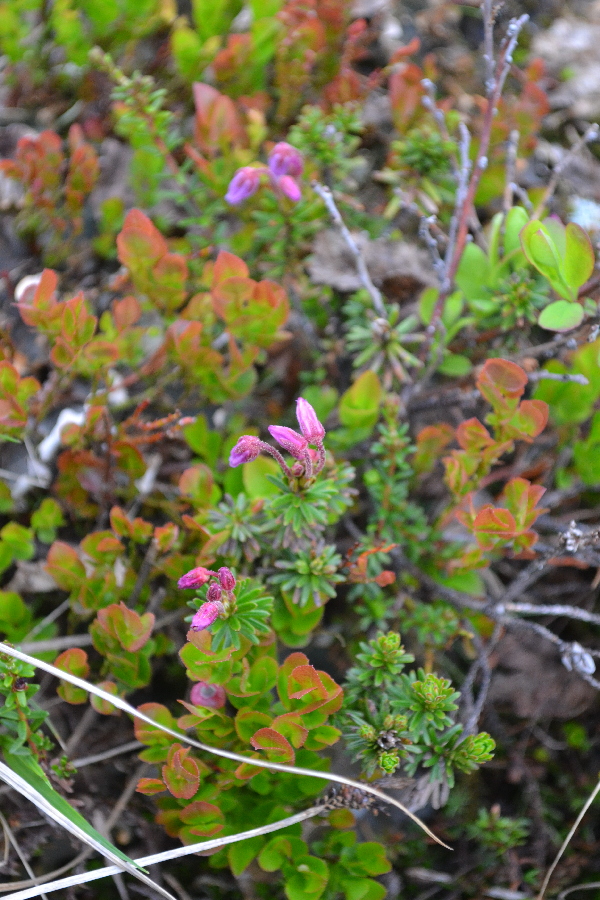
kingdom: Plantae
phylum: Tracheophyta
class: Magnoliopsida
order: Ericales
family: Ericaceae
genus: Phyllodoce
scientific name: Phyllodoce caerulea
